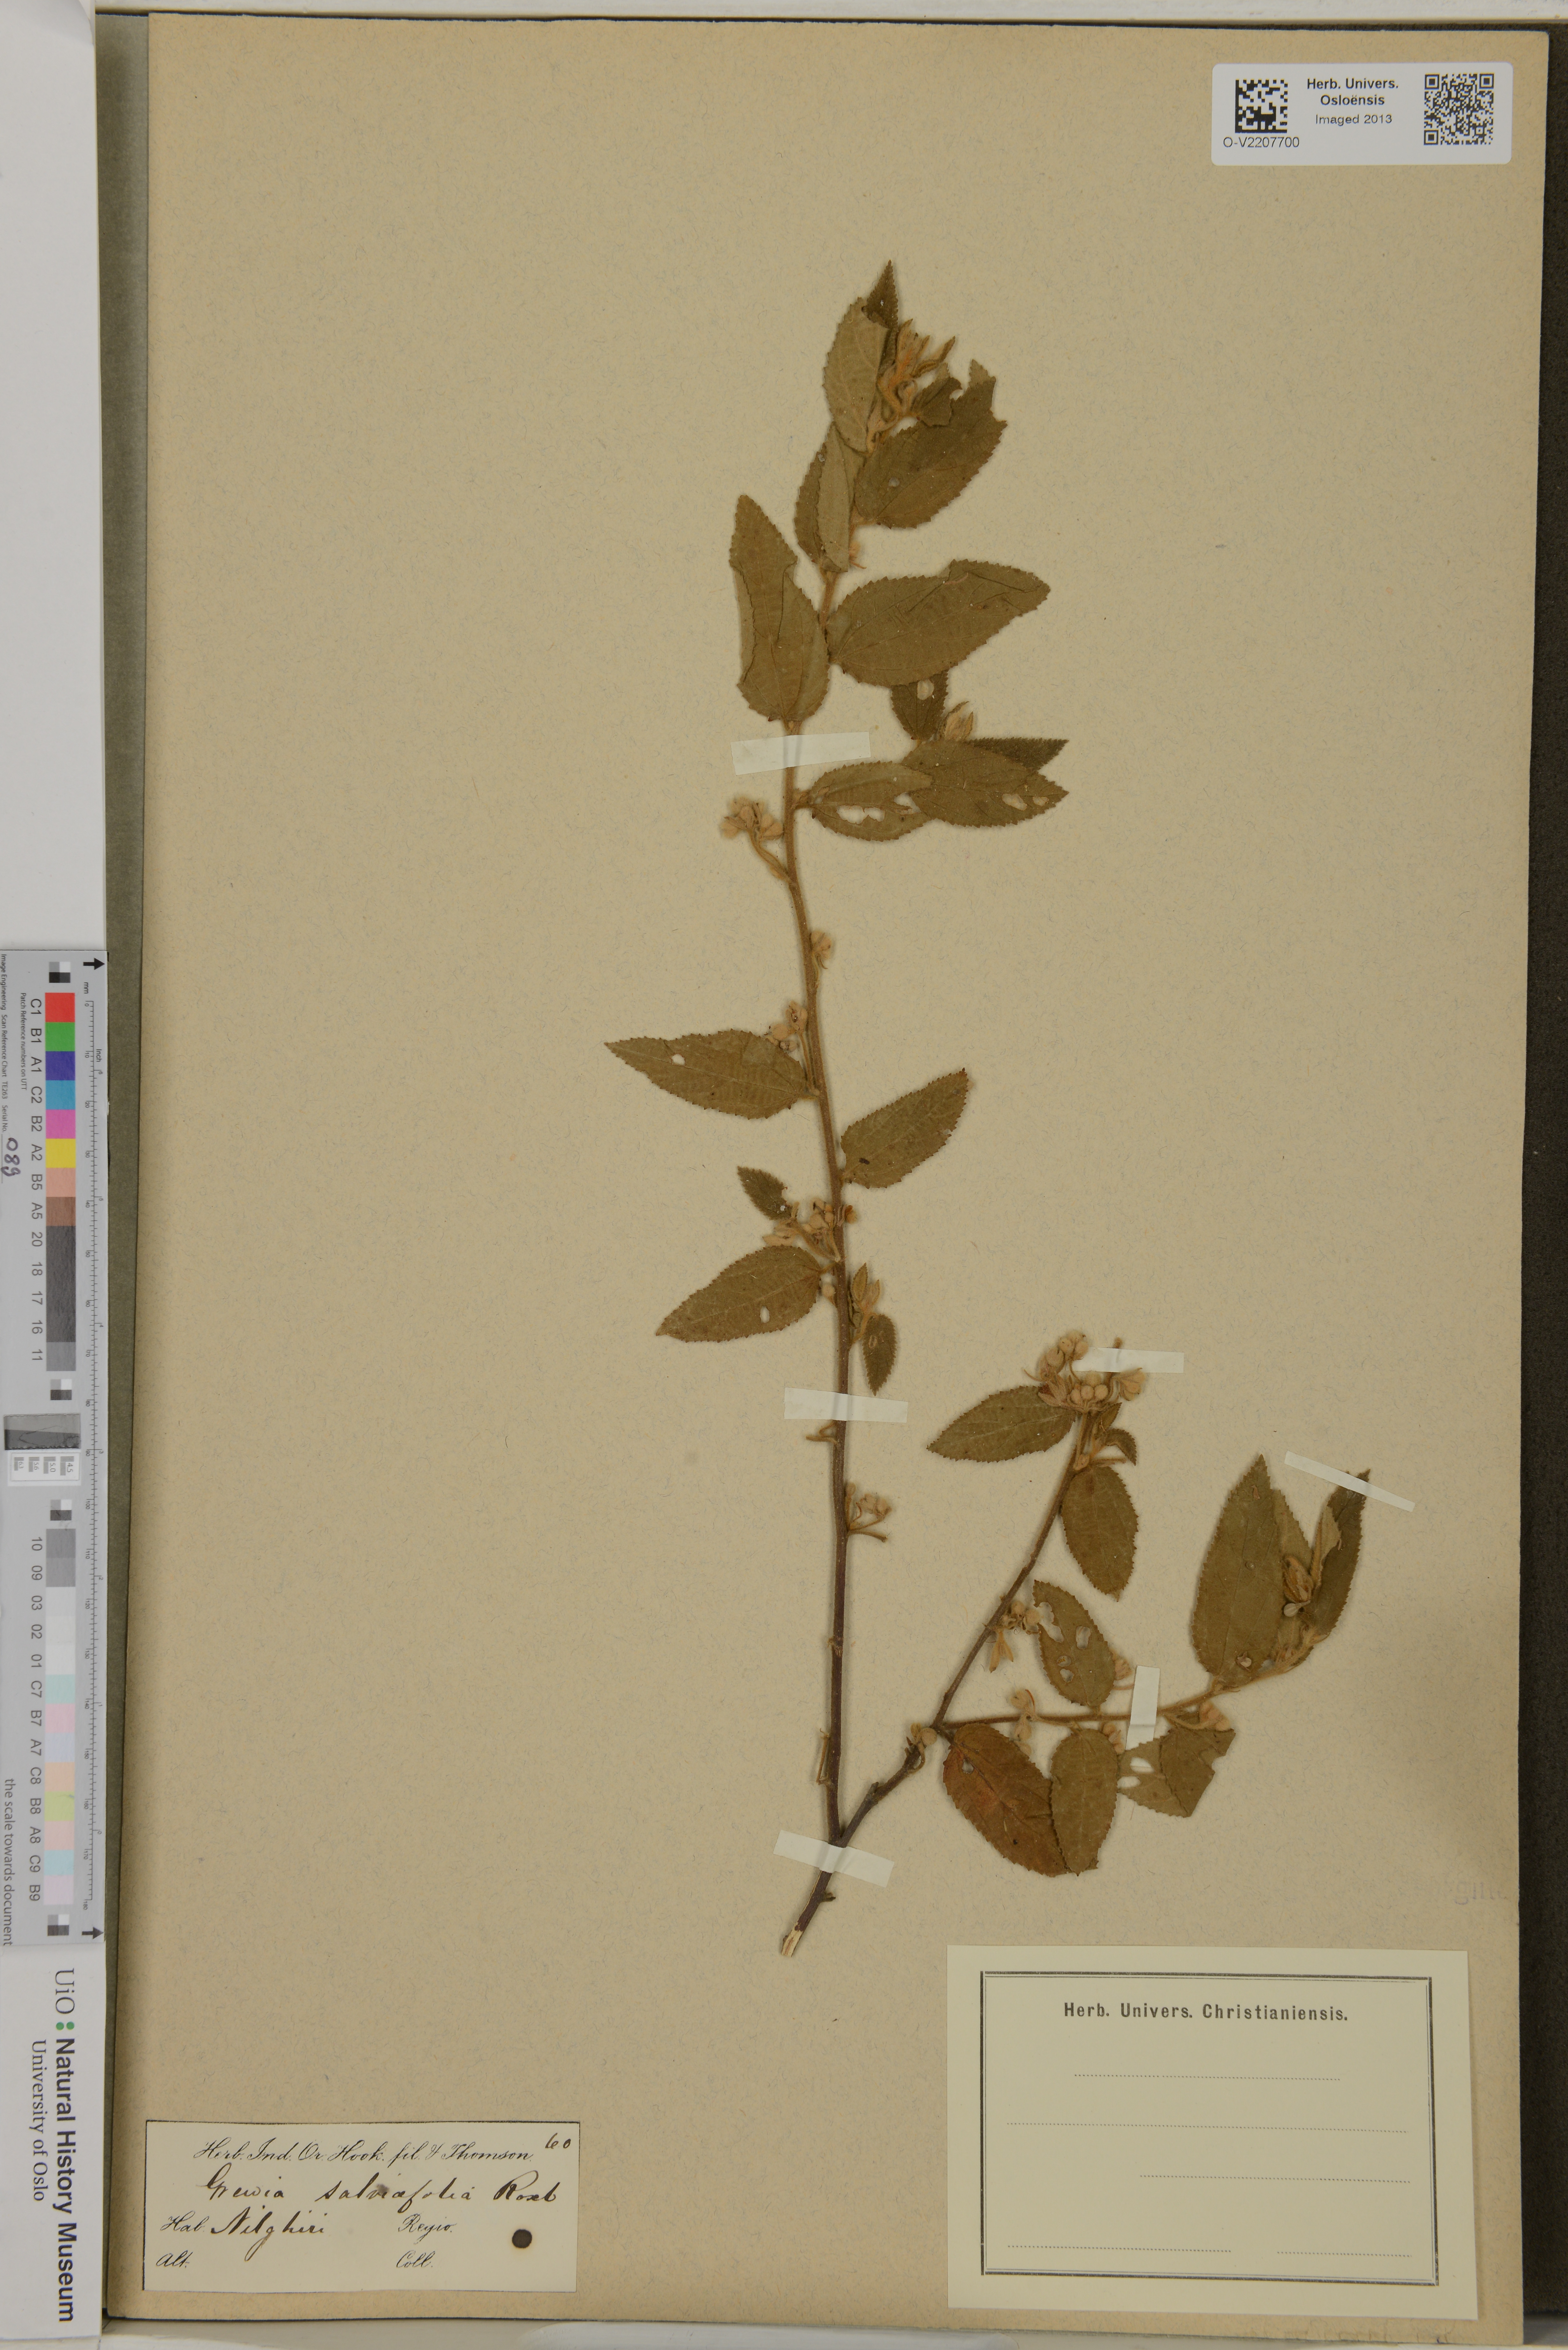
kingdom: Plantae
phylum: Tracheophyta
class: Magnoliopsida
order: Malvales
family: Malvaceae
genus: Grewia
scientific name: Grewia
